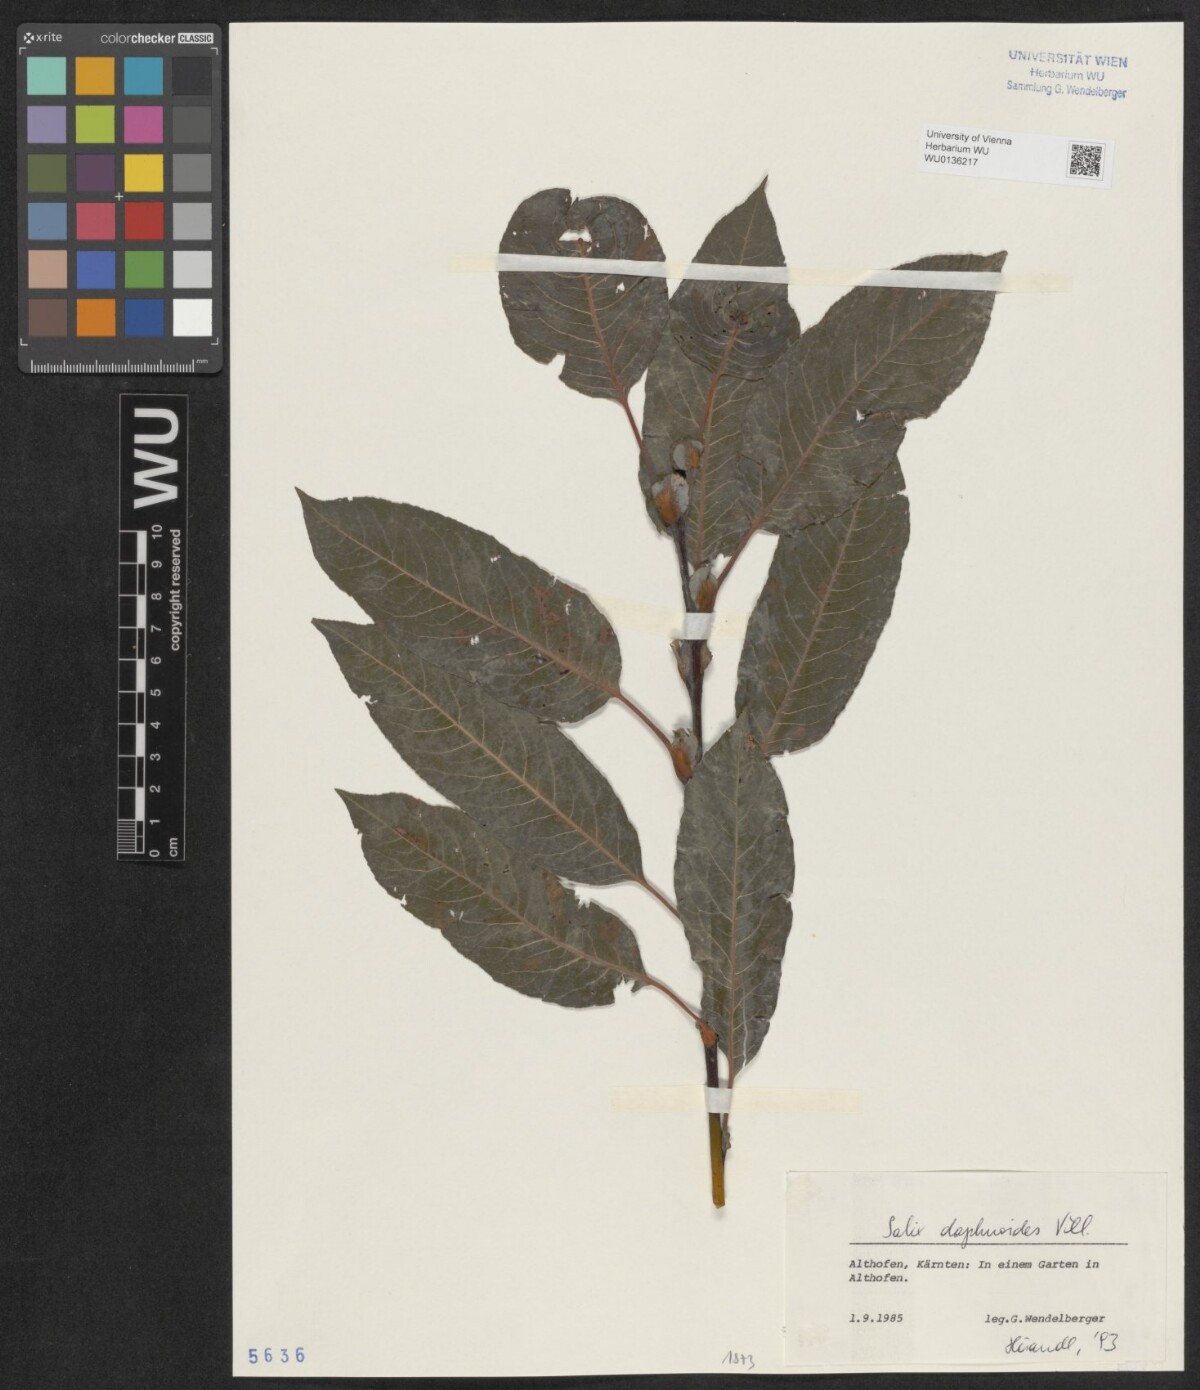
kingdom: Plantae
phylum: Tracheophyta
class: Magnoliopsida
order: Malpighiales
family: Salicaceae
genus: Salix
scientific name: Salix daphnoides
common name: European violet-willow
